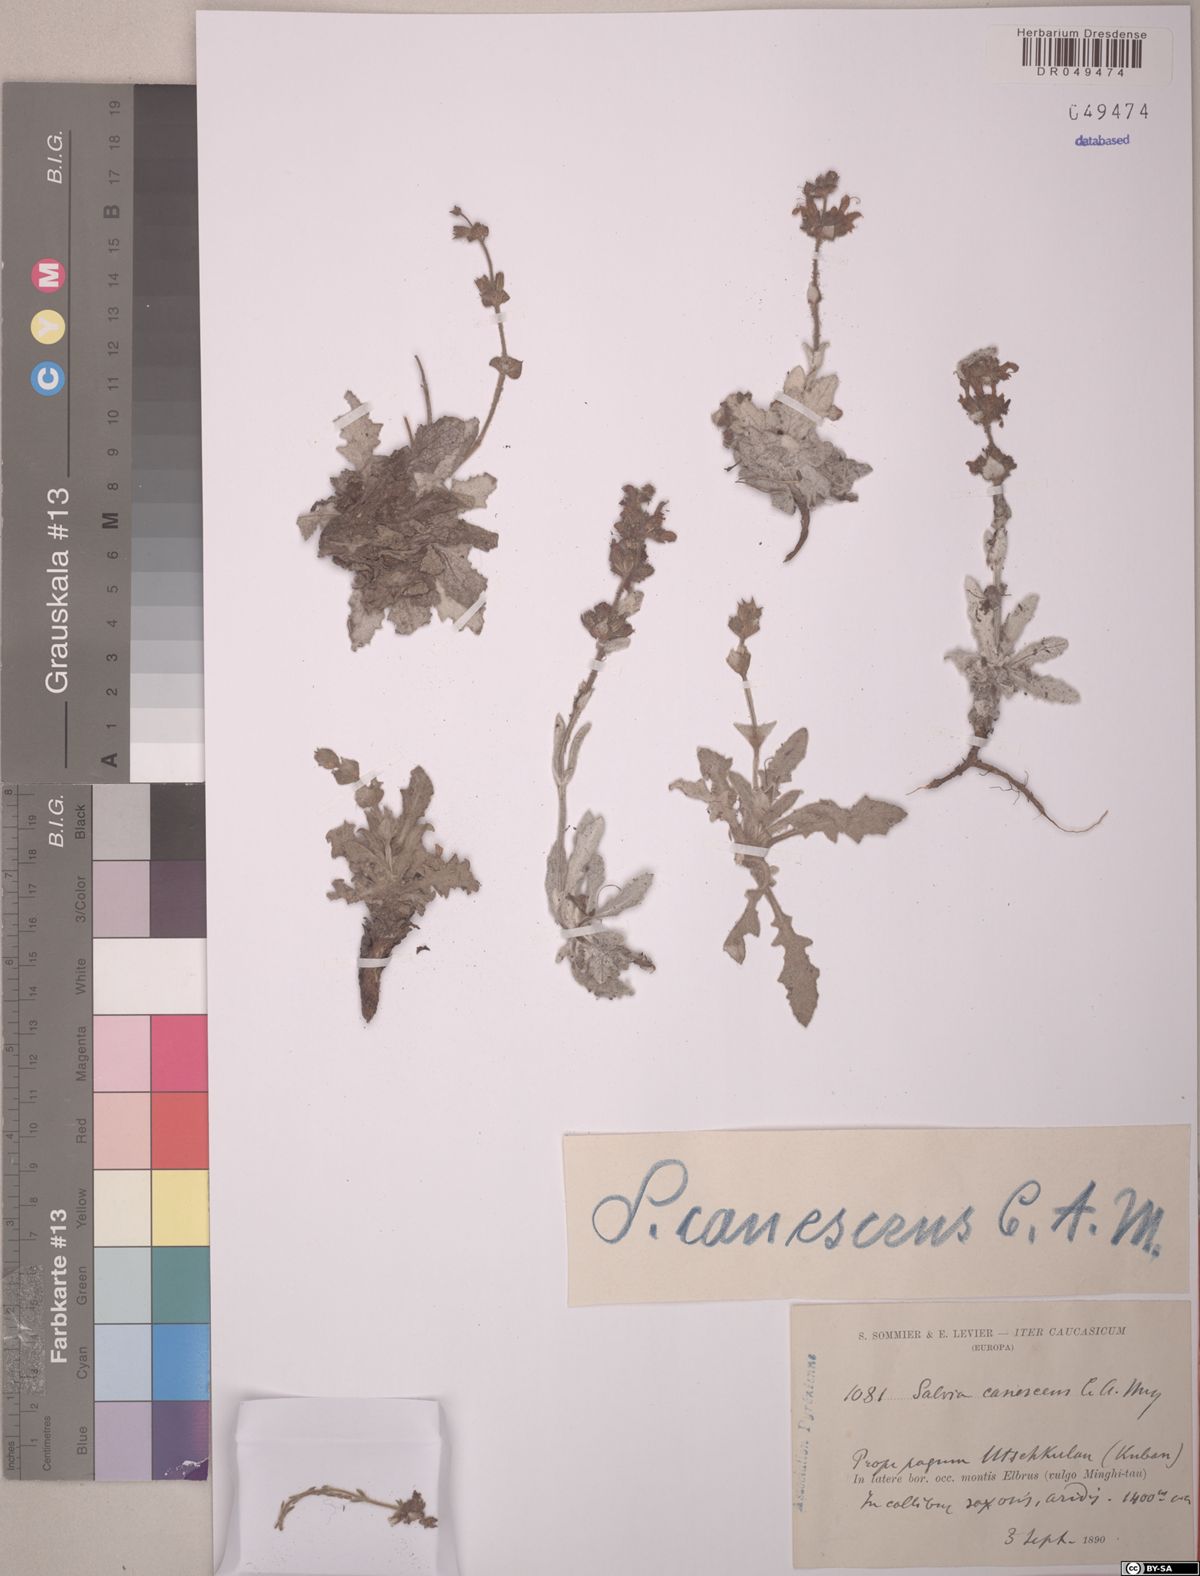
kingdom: Plantae
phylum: Tracheophyta
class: Magnoliopsida
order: Lamiales
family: Lamiaceae
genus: Salvia
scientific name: Salvia canescens
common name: Hoary salvia
